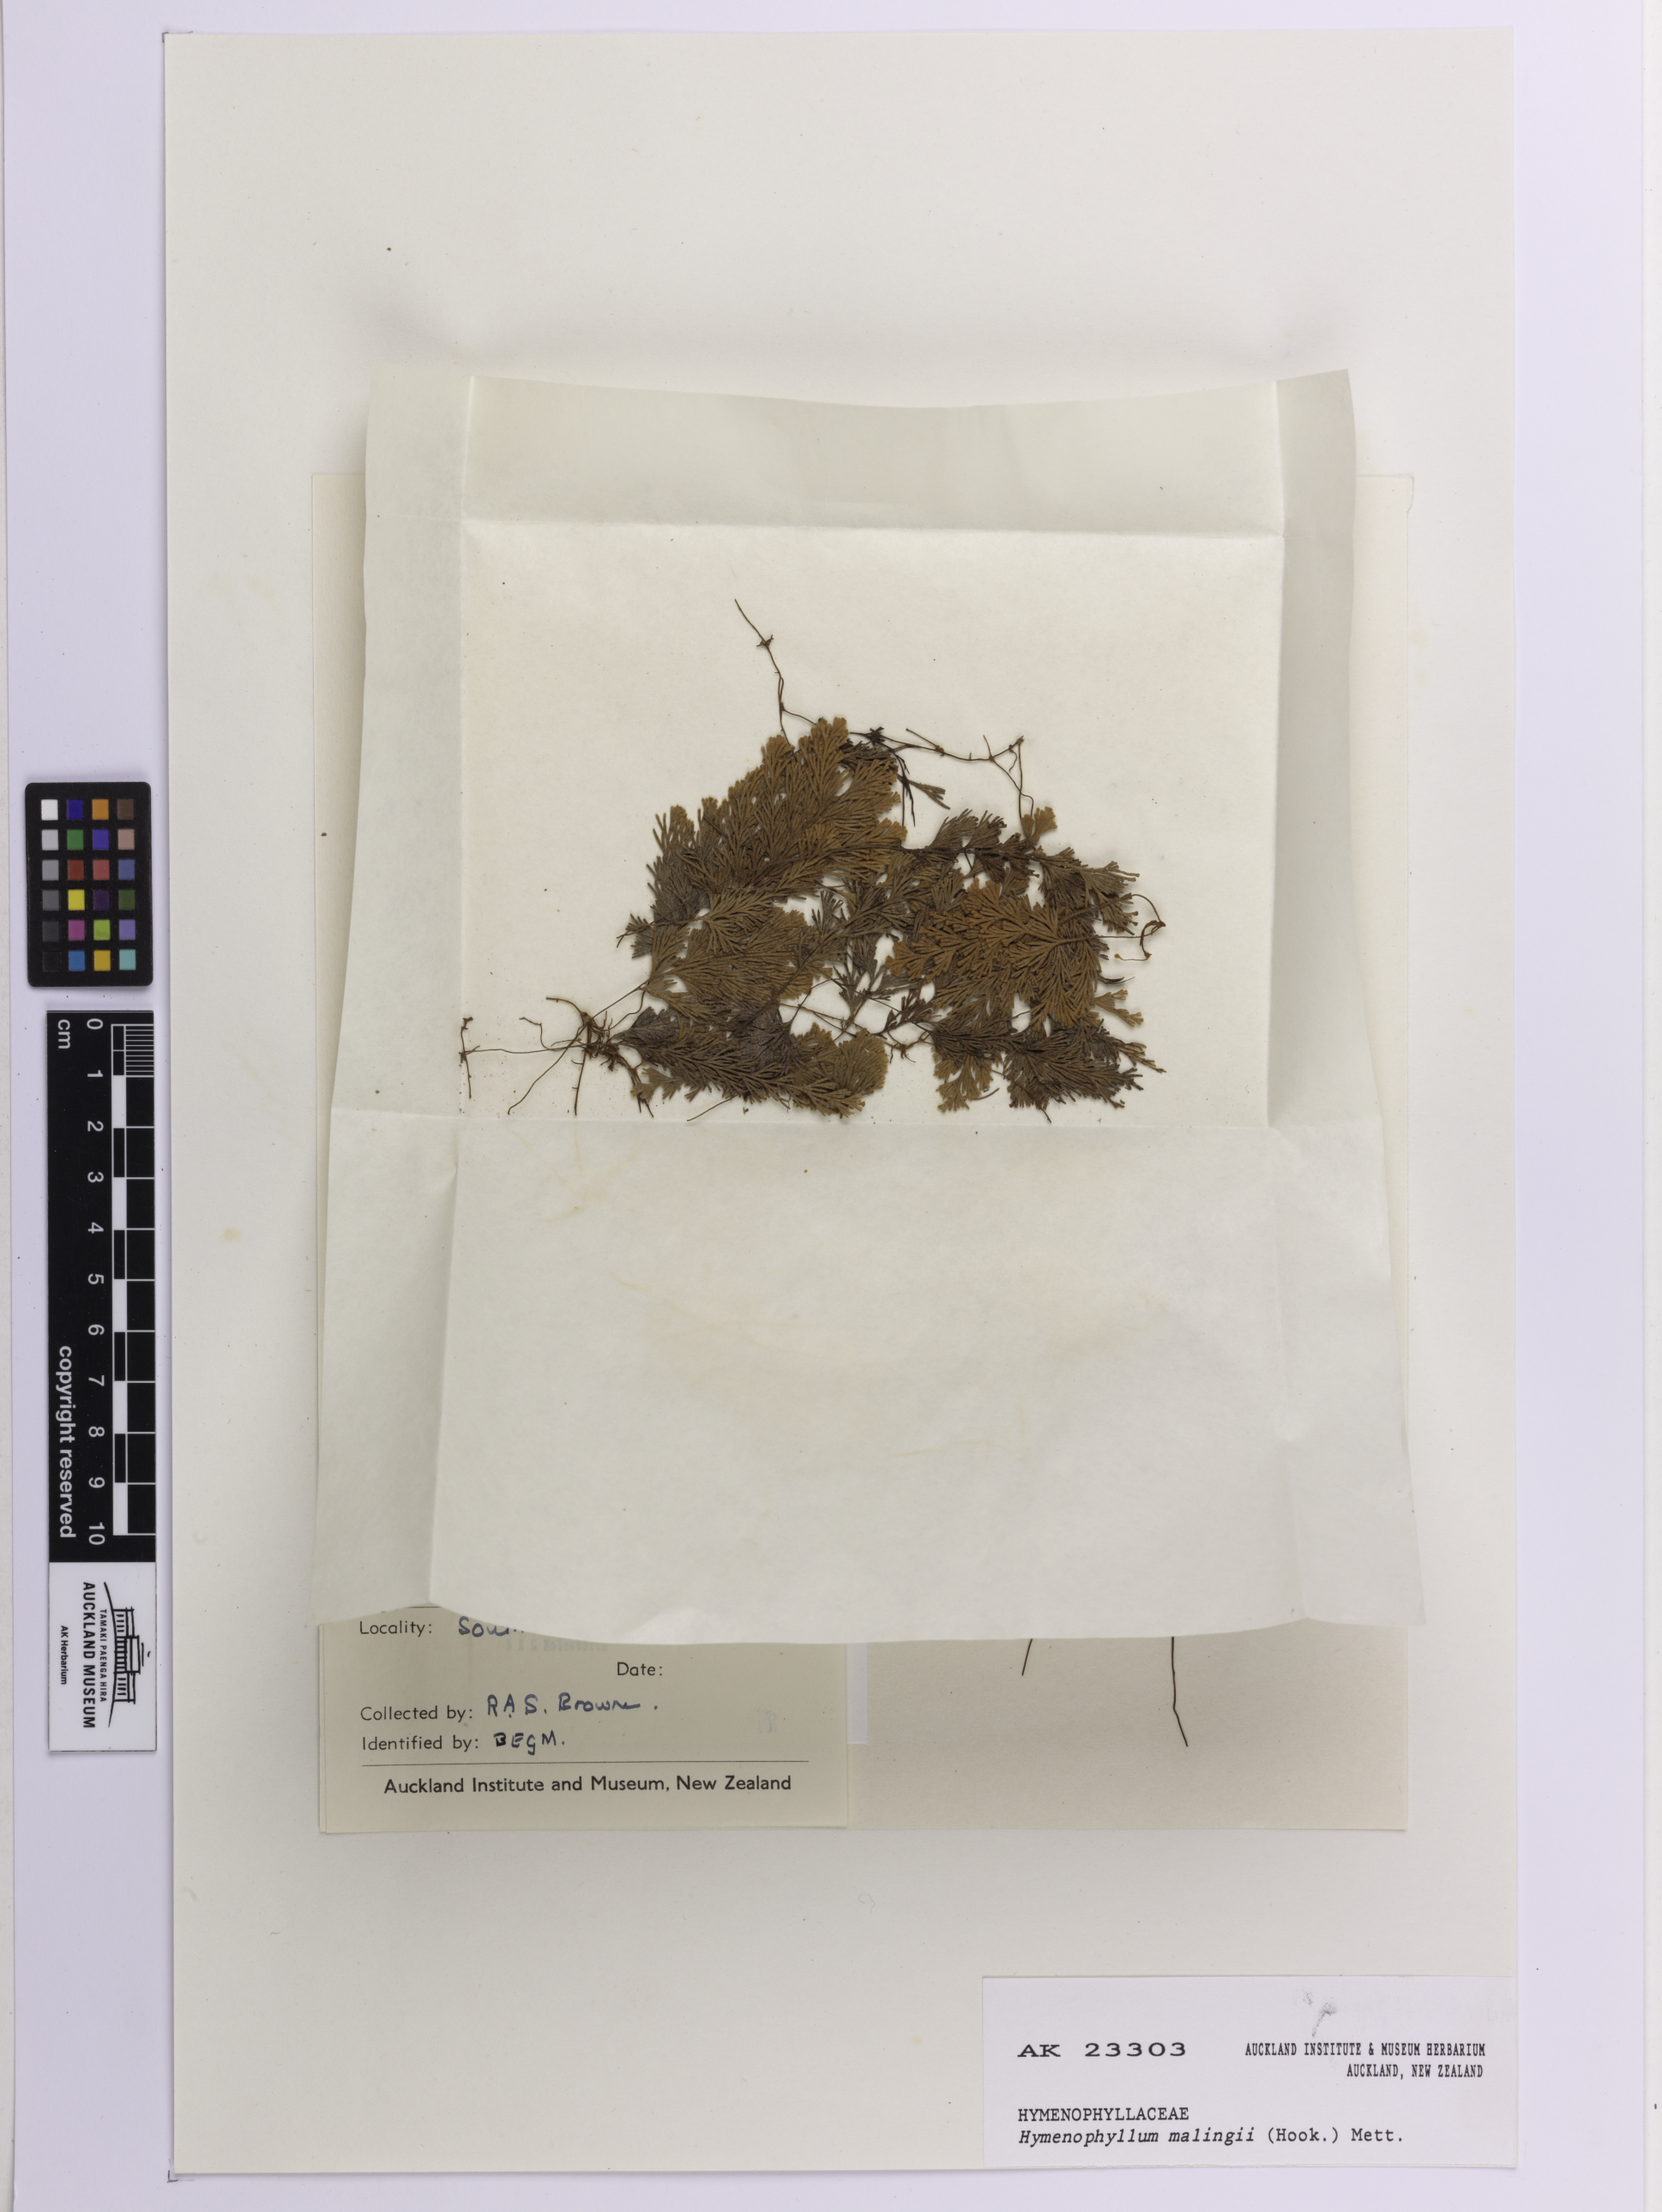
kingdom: Plantae
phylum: Tracheophyta
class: Polypodiopsida
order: Hymenophyllales
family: Hymenophyllaceae
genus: Hymenophyllum
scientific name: Hymenophyllum malingii
